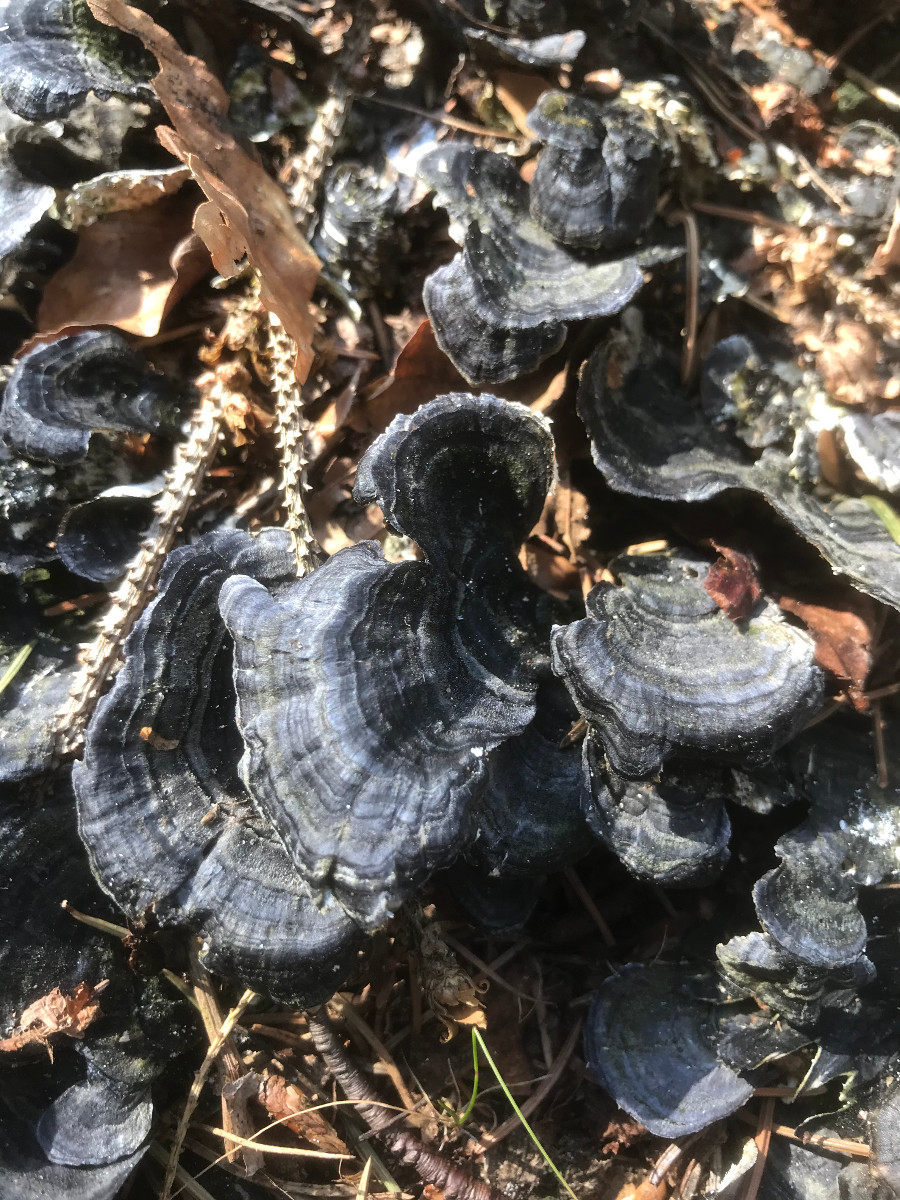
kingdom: Fungi
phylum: Basidiomycota
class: Agaricomycetes
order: Polyporales
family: Polyporaceae
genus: Trametes
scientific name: Trametes versicolor
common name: broget læderporesvamp
